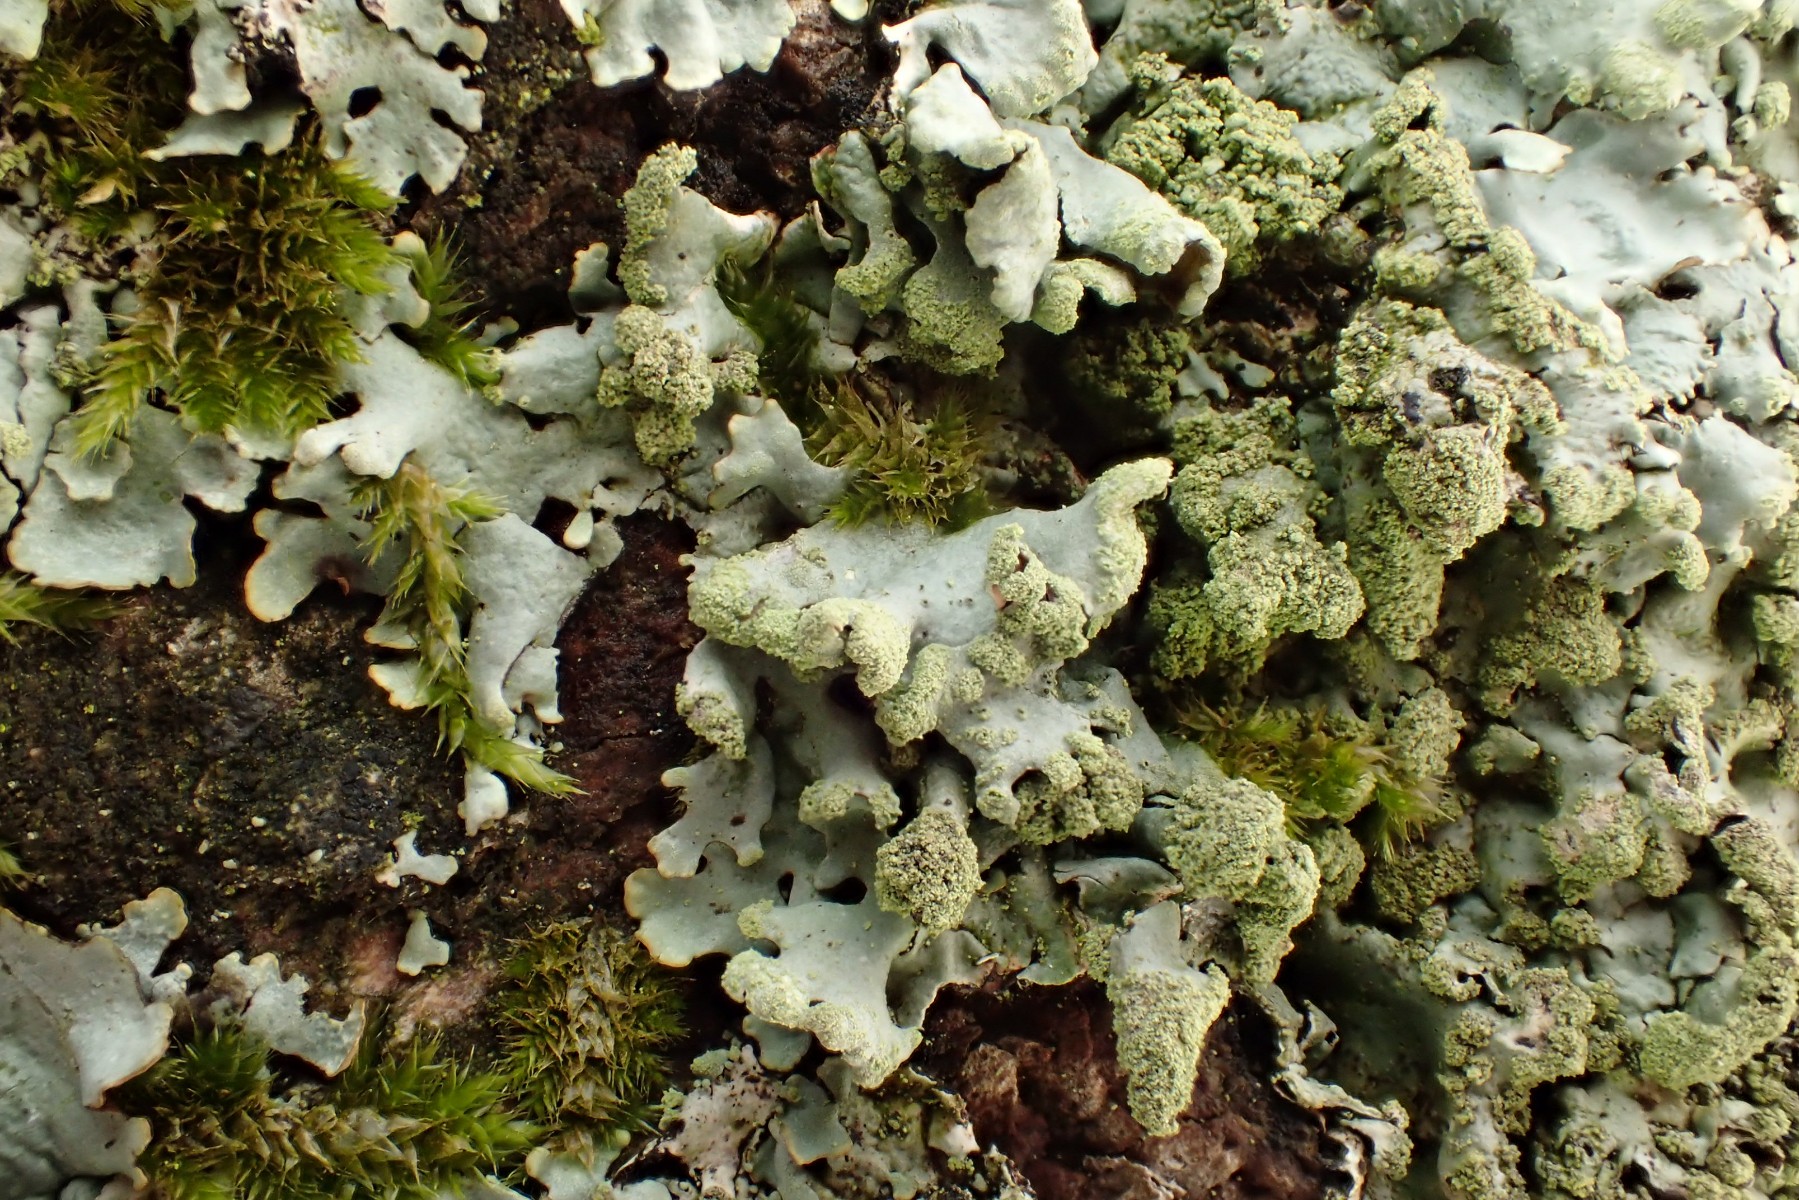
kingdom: Fungi
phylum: Ascomycota
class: Lecanoromycetes
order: Lecanorales
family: Parmeliaceae
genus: Hypotrachyna
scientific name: Hypotrachyna revoluta
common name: bleggrå skållav
